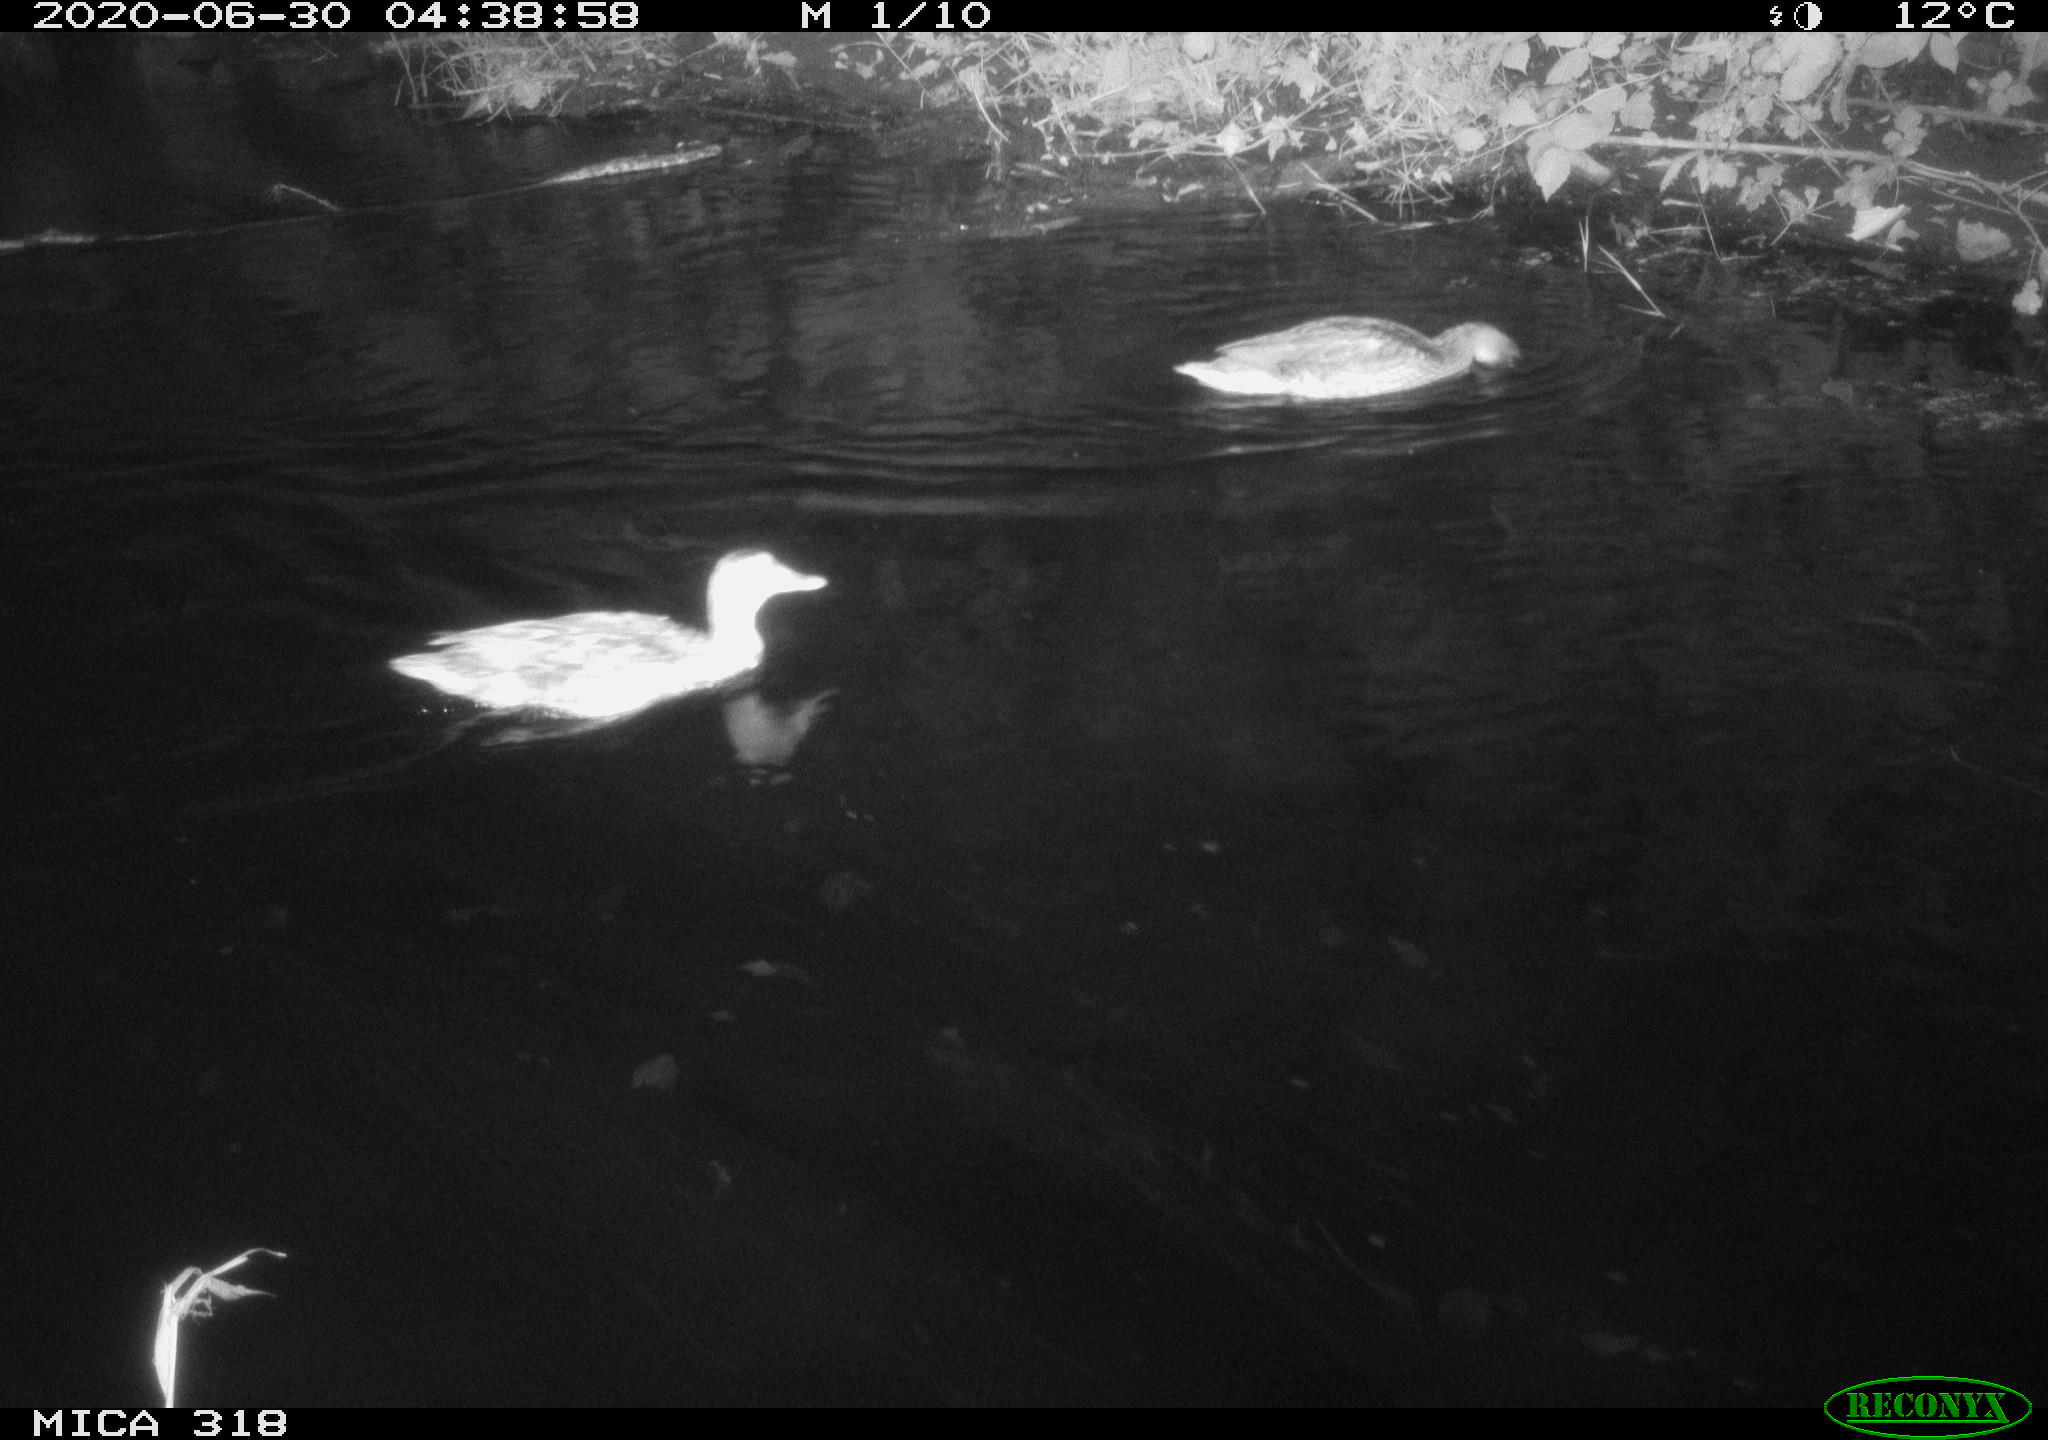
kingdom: Animalia
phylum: Chordata
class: Aves
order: Anseriformes
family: Anatidae
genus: Anas
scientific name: Anas platyrhynchos
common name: Mallard
